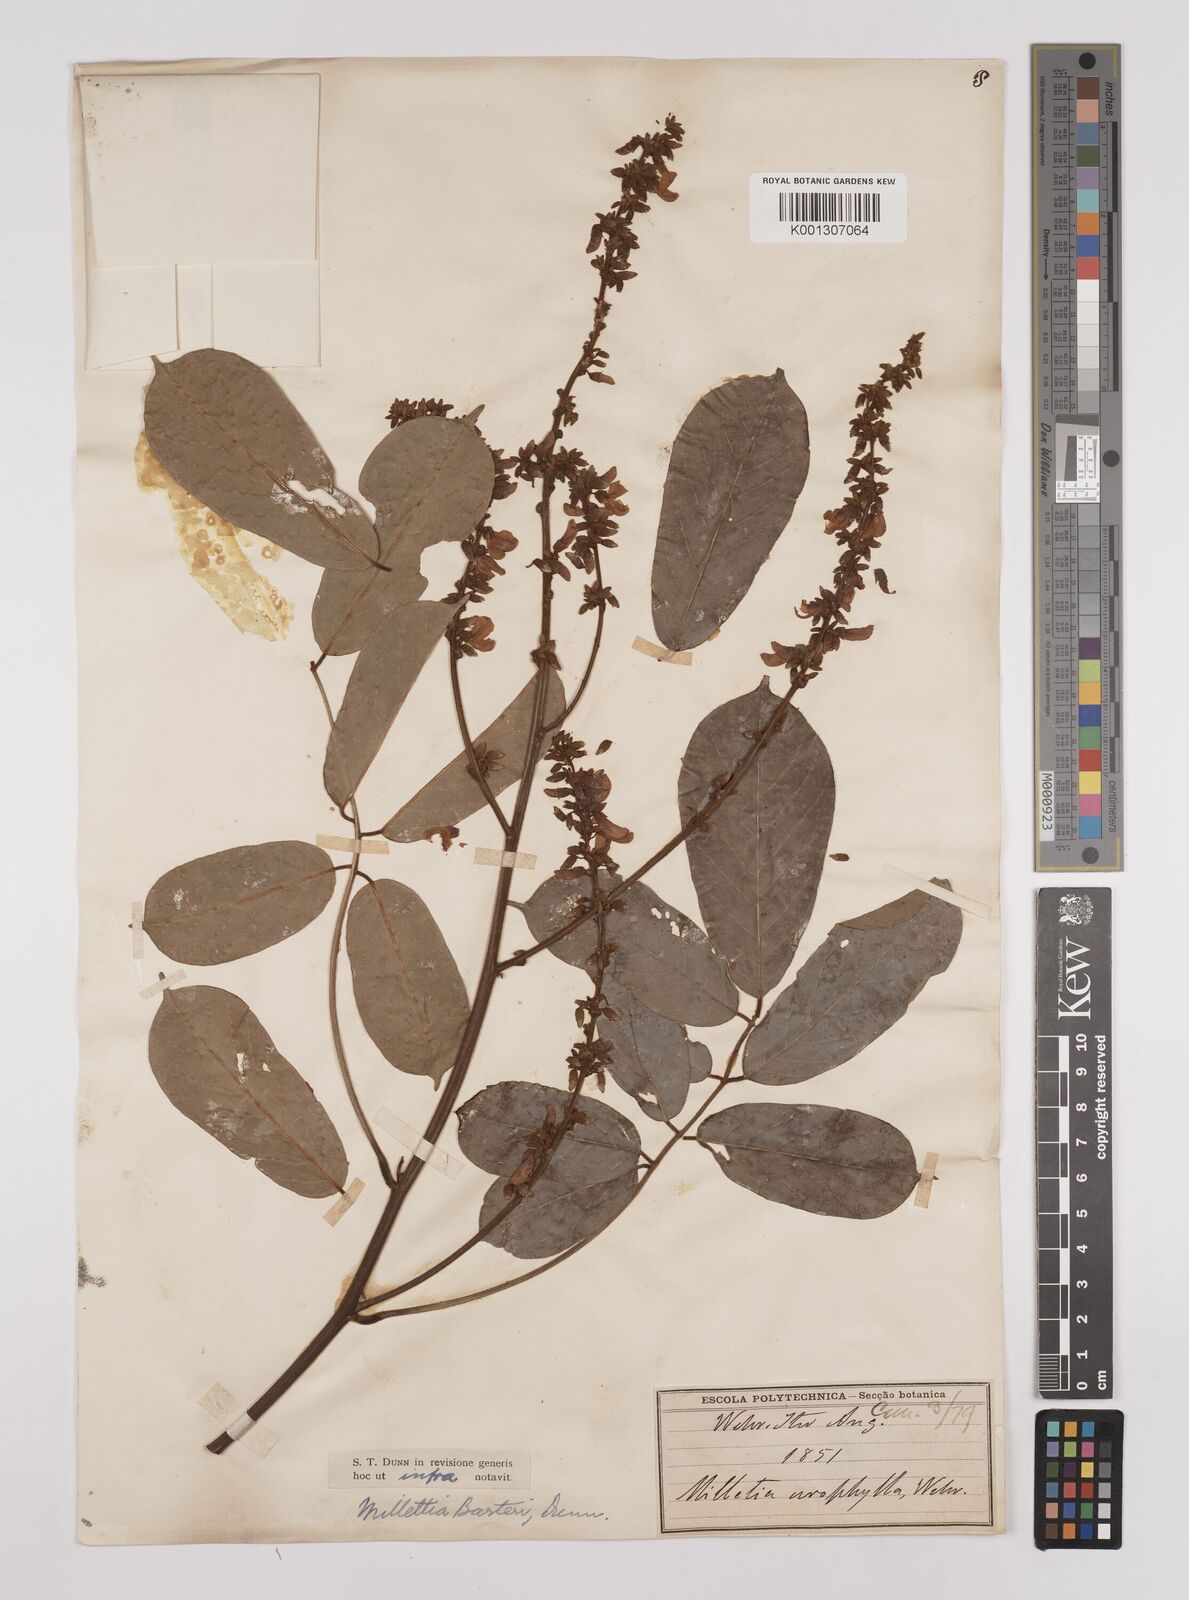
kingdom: Plantae
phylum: Tracheophyta
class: Magnoliopsida
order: Fabales
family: Fabaceae
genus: Millettia
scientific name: Millettia barteri
